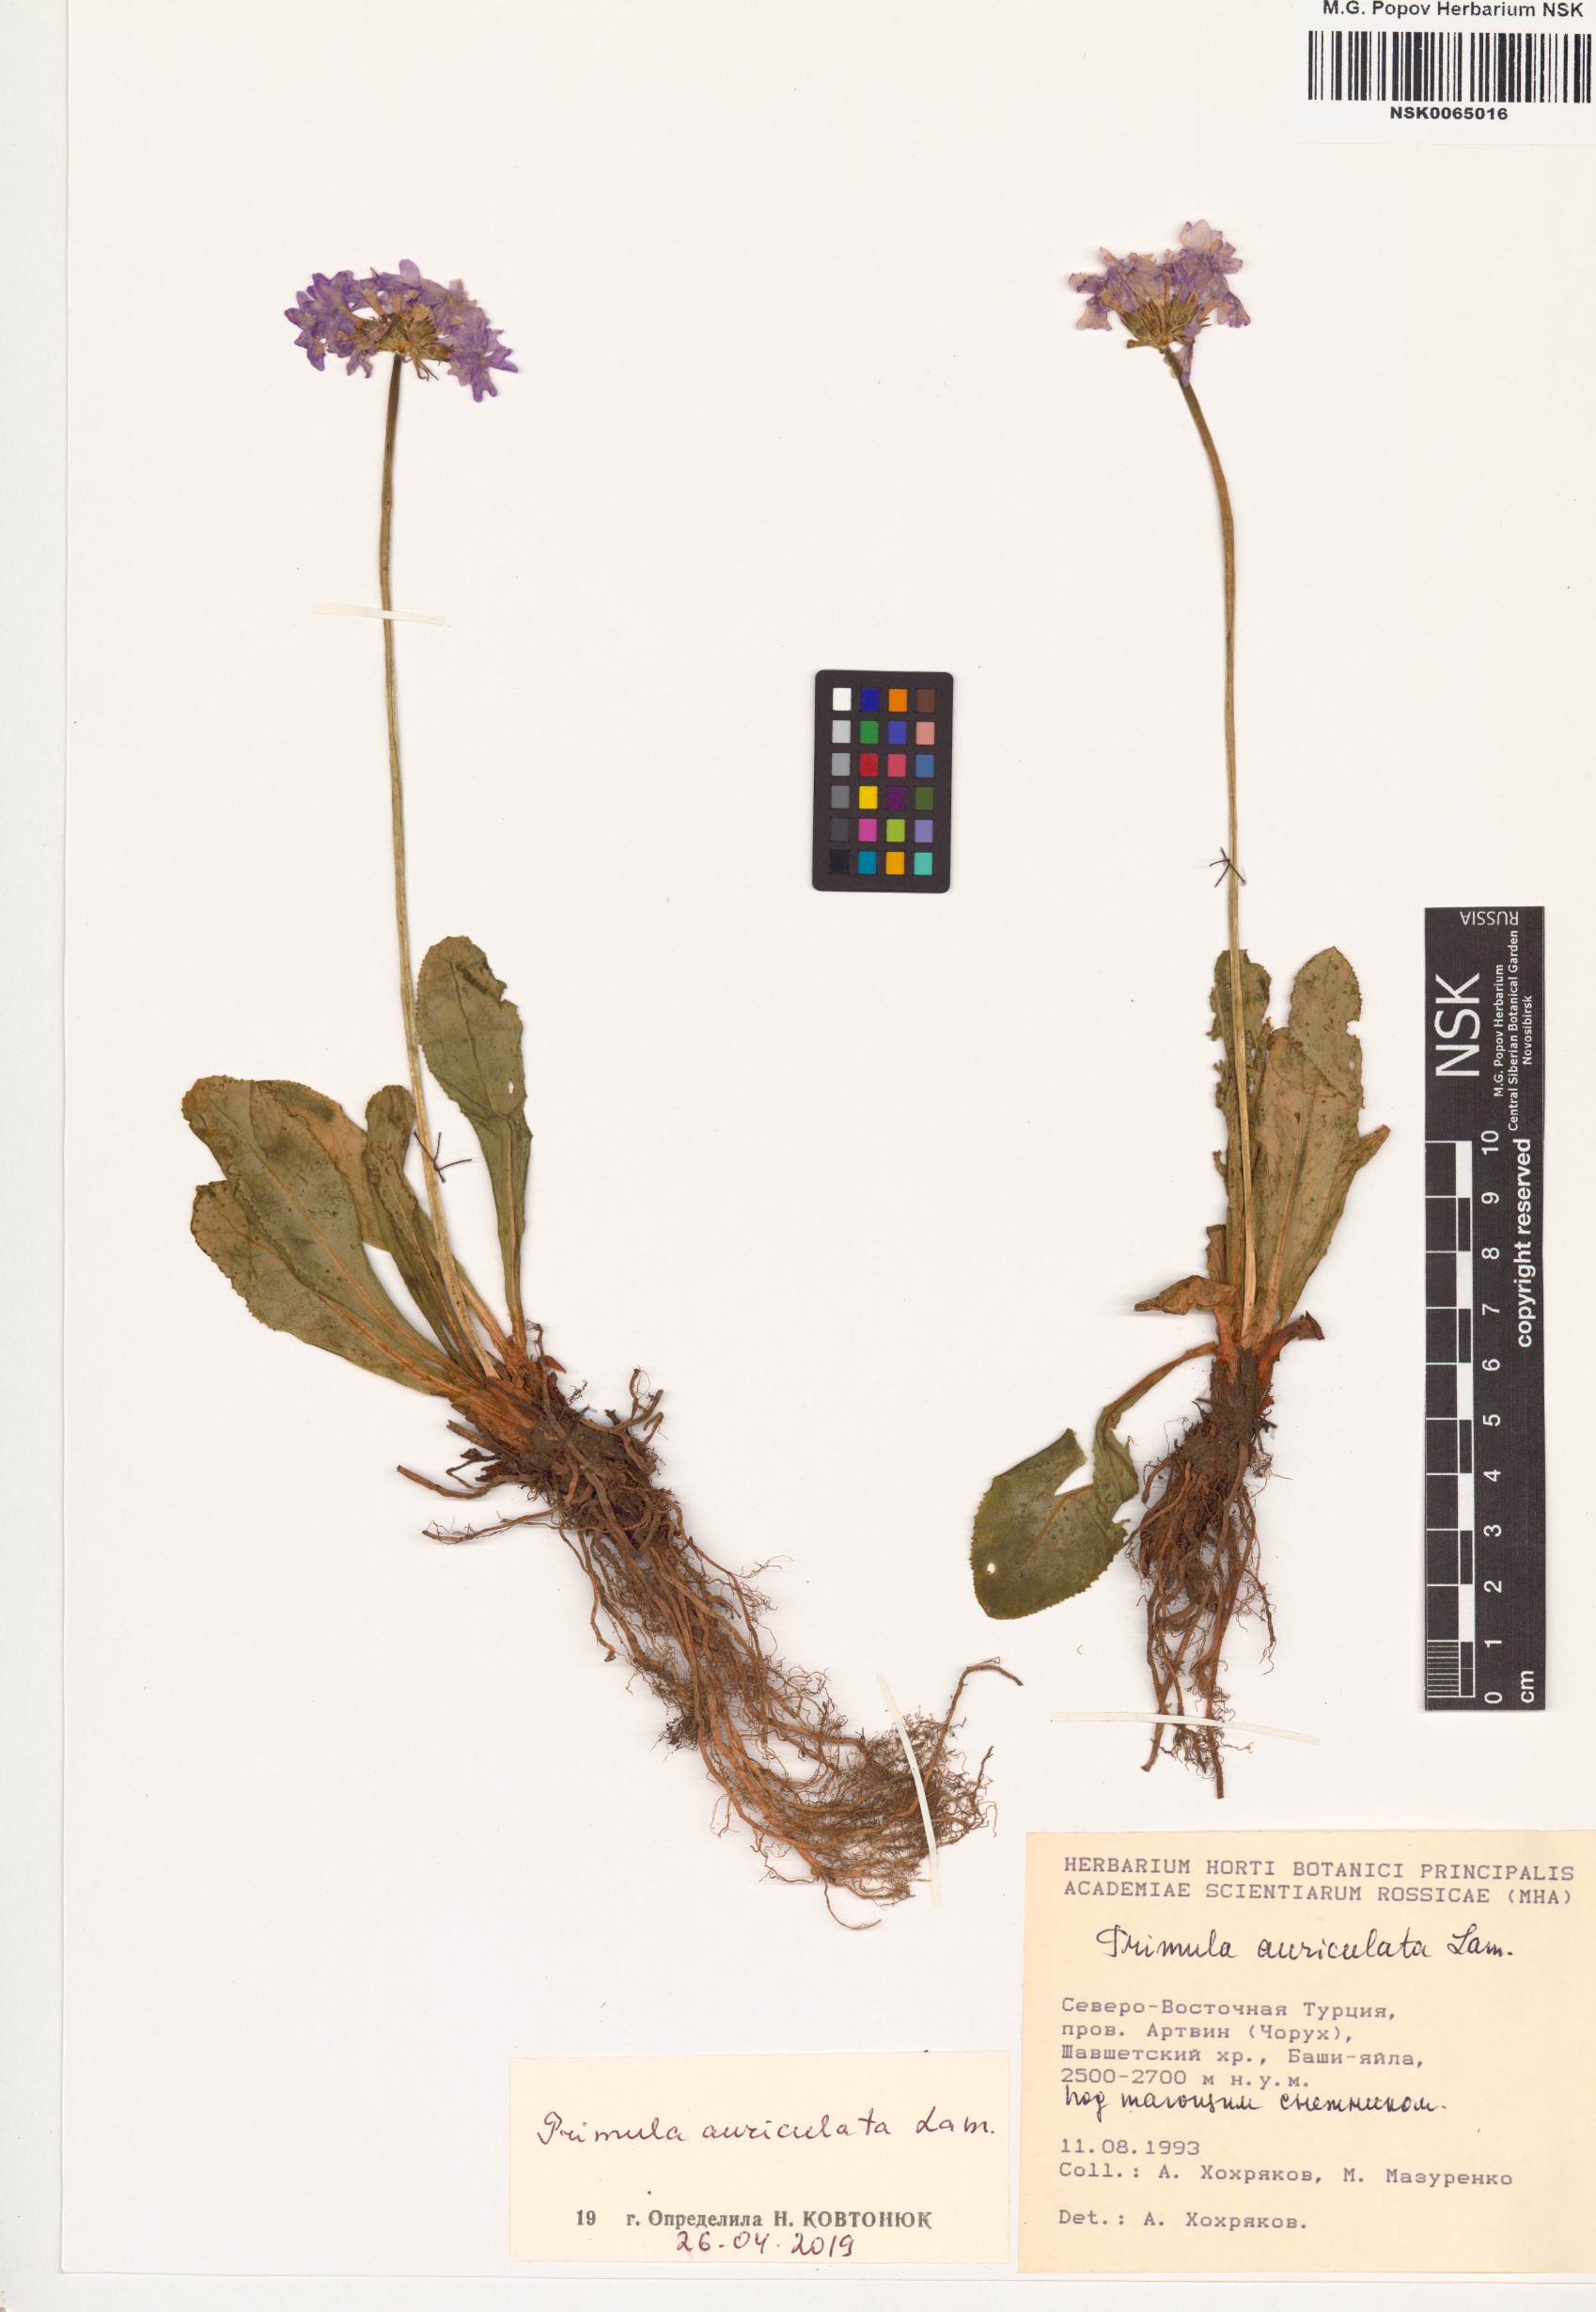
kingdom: Plantae
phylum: Tracheophyta
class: Magnoliopsida
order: Ericales
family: Primulaceae
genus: Primula
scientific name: Primula auriculata
